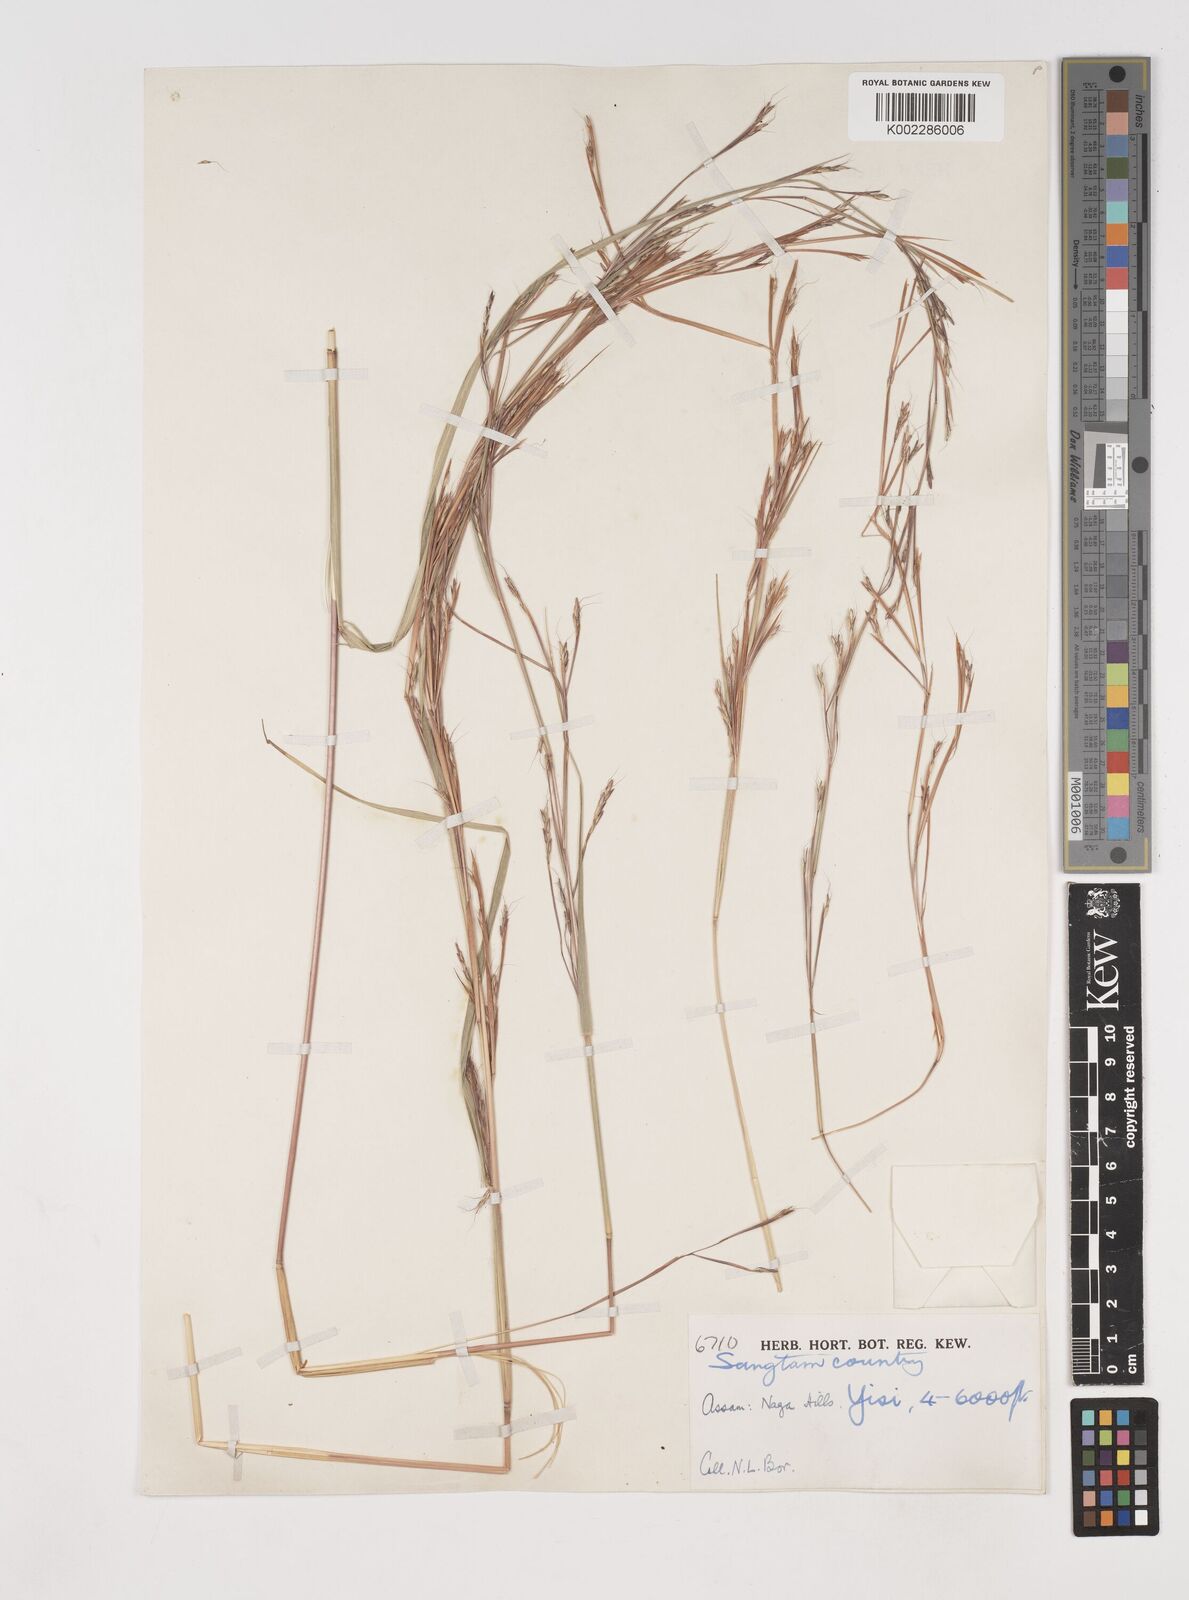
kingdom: Plantae
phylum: Tracheophyta
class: Liliopsida
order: Poales
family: Poaceae
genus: Schizachyrium
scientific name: Schizachyrium delavayi
